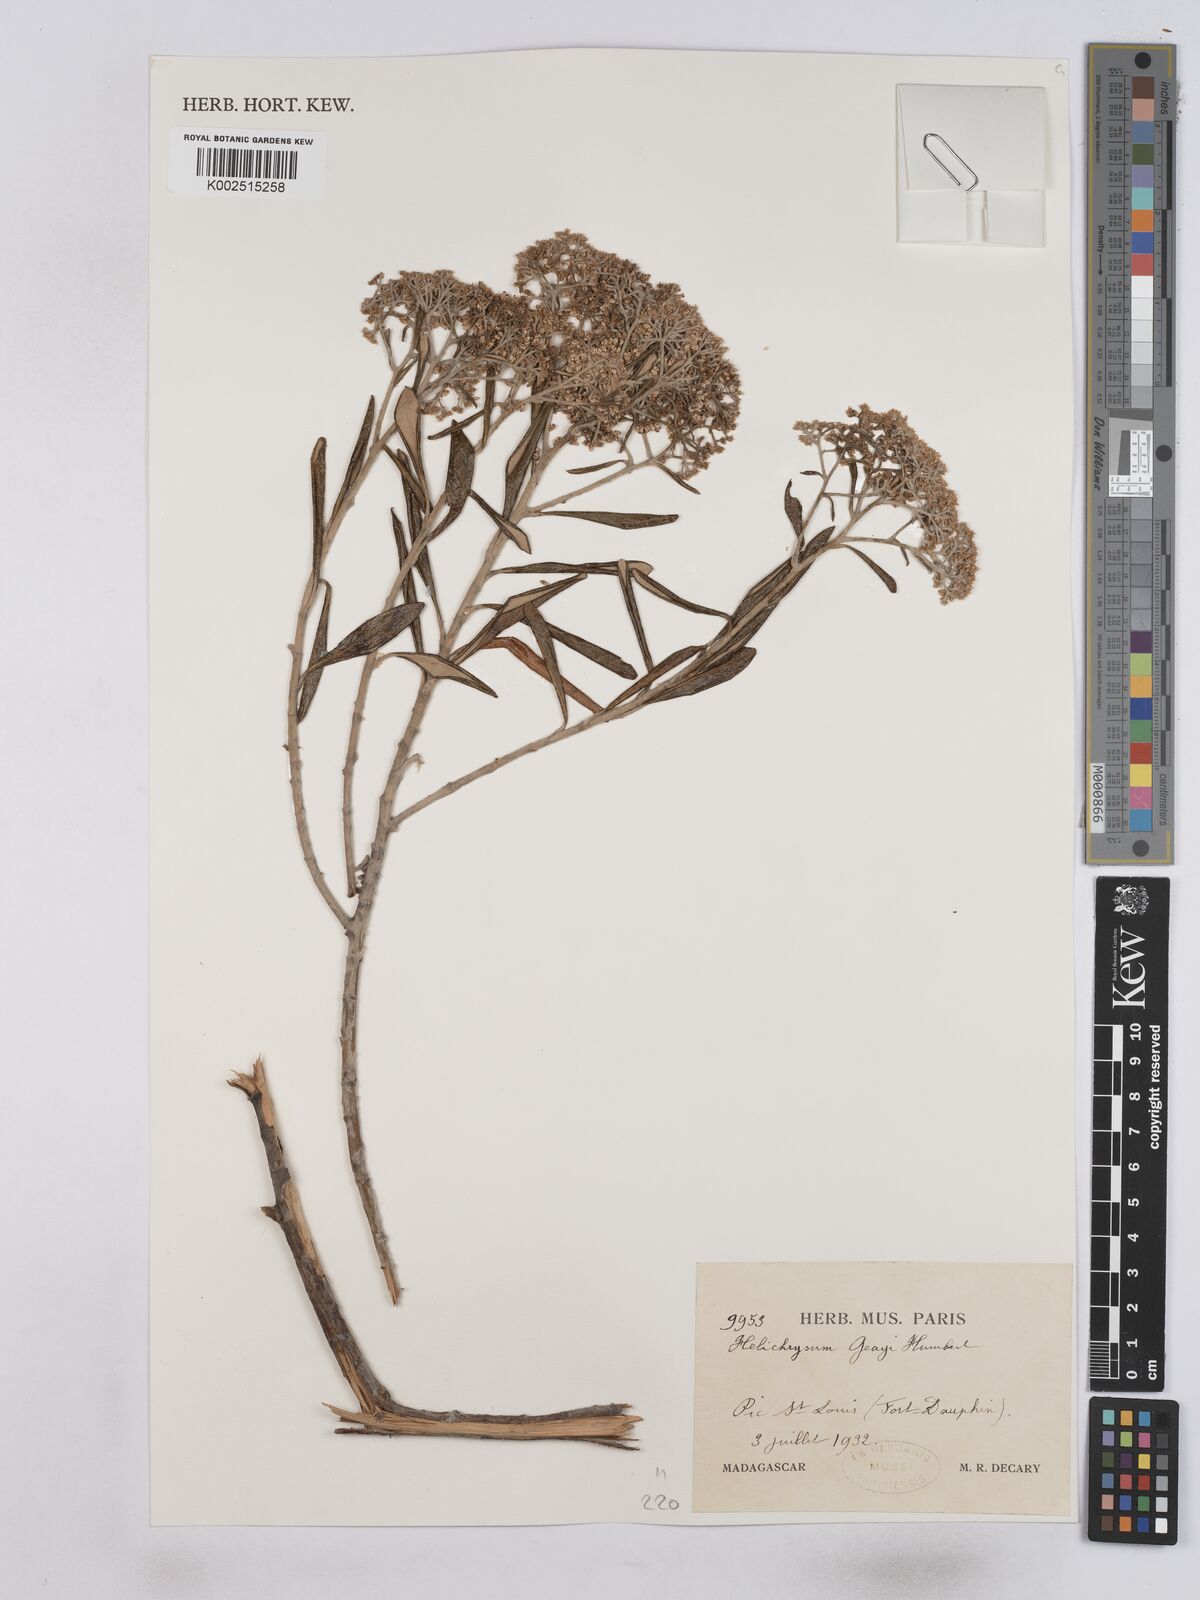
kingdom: Plantae
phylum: Tracheophyta
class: Magnoliopsida
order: Asterales
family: Asteraceae
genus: Helichrysum
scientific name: Helichrysum geayi
